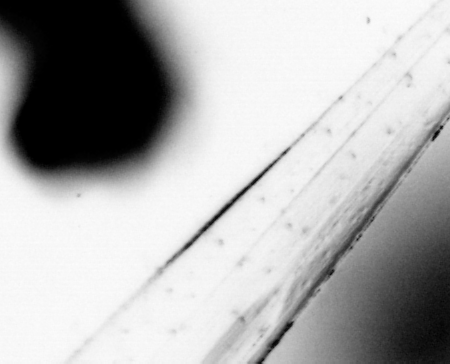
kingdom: Animalia
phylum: Chaetognatha
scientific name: Chaetognatha
